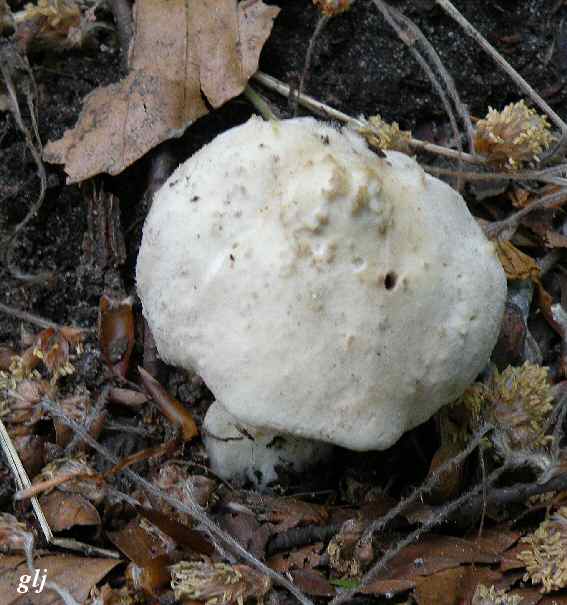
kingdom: Fungi
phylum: Basidiomycota
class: Agaricomycetes
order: Agaricales
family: Lyophyllaceae
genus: Calocybe
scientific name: Calocybe gambosa
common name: vårmusseron
